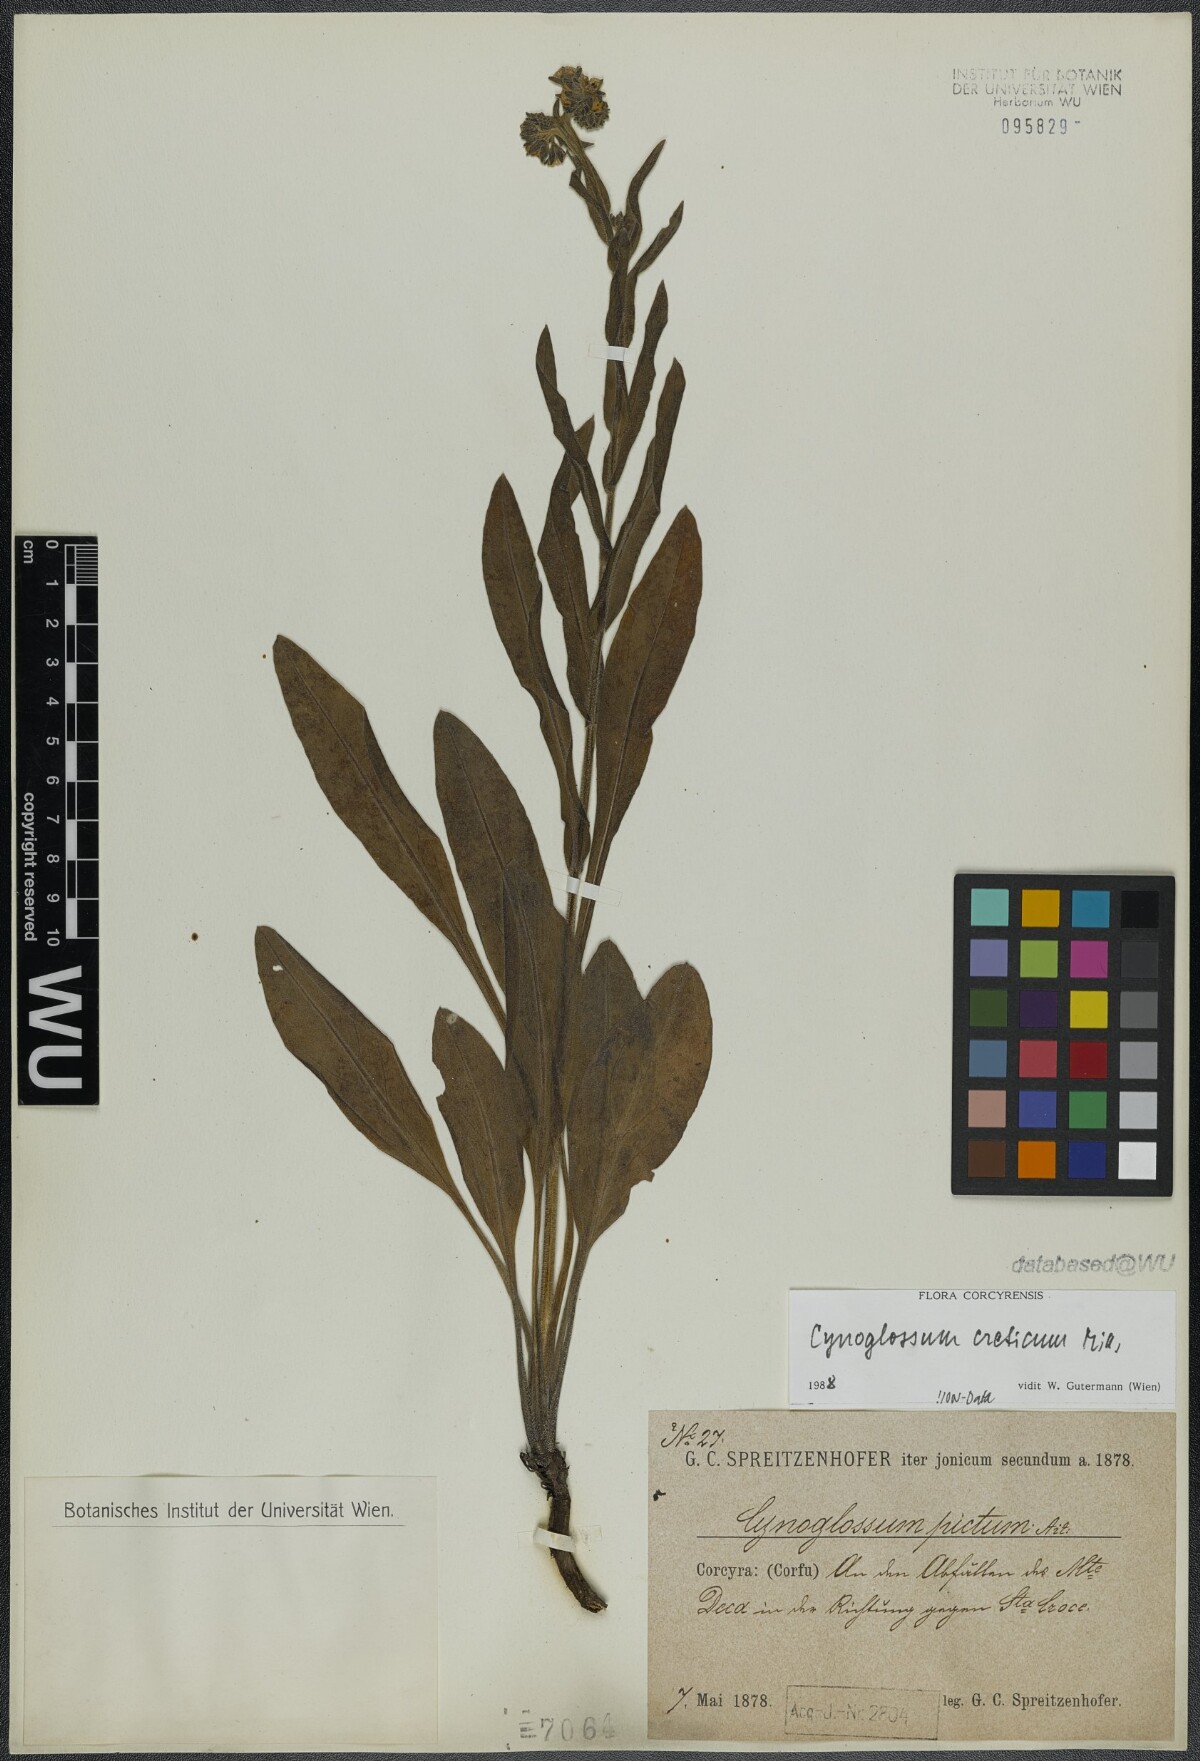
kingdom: Plantae
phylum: Tracheophyta
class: Magnoliopsida
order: Boraginales
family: Boraginaceae
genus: Cynoglossum
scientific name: Cynoglossum creticum
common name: Blue hound's tongue
